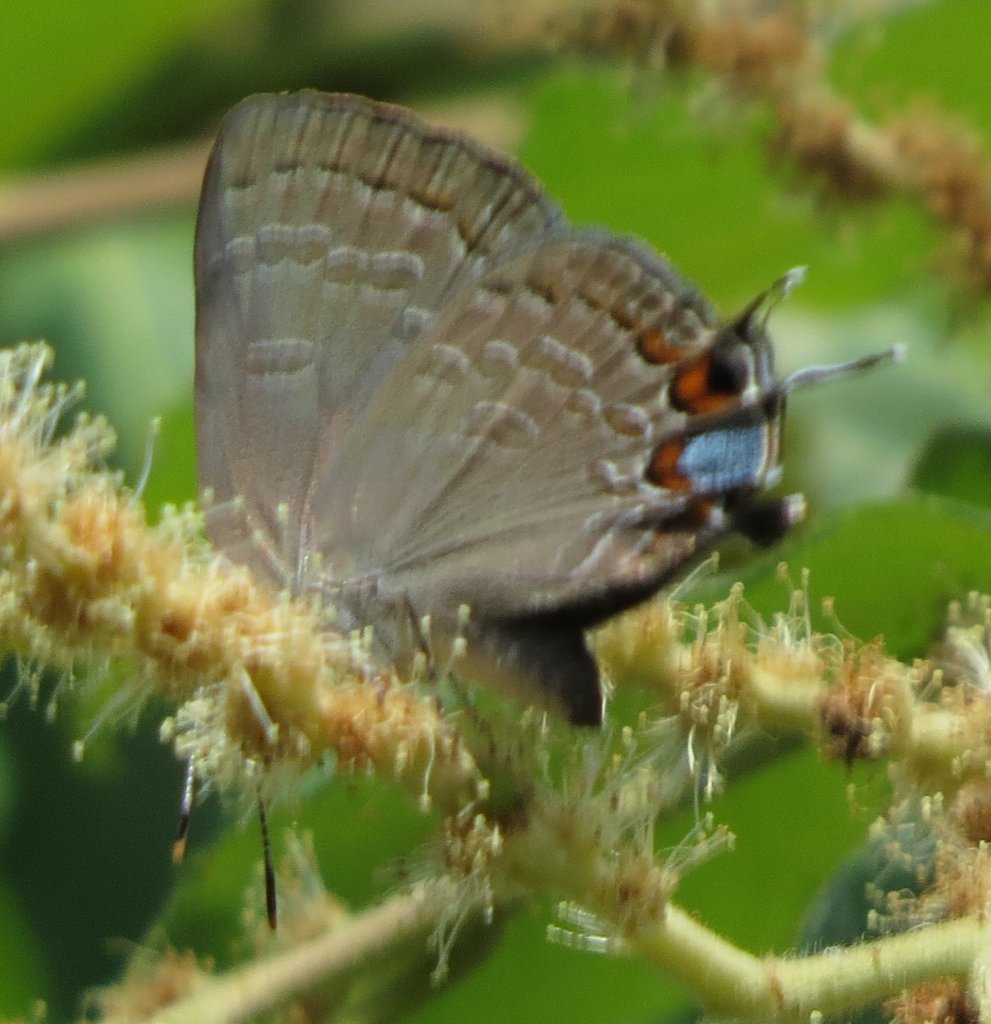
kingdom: Animalia
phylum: Arthropoda
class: Insecta
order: Lepidoptera
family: Lycaenidae
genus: Strymon
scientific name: Strymon kingi
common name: King's Hairstreak
